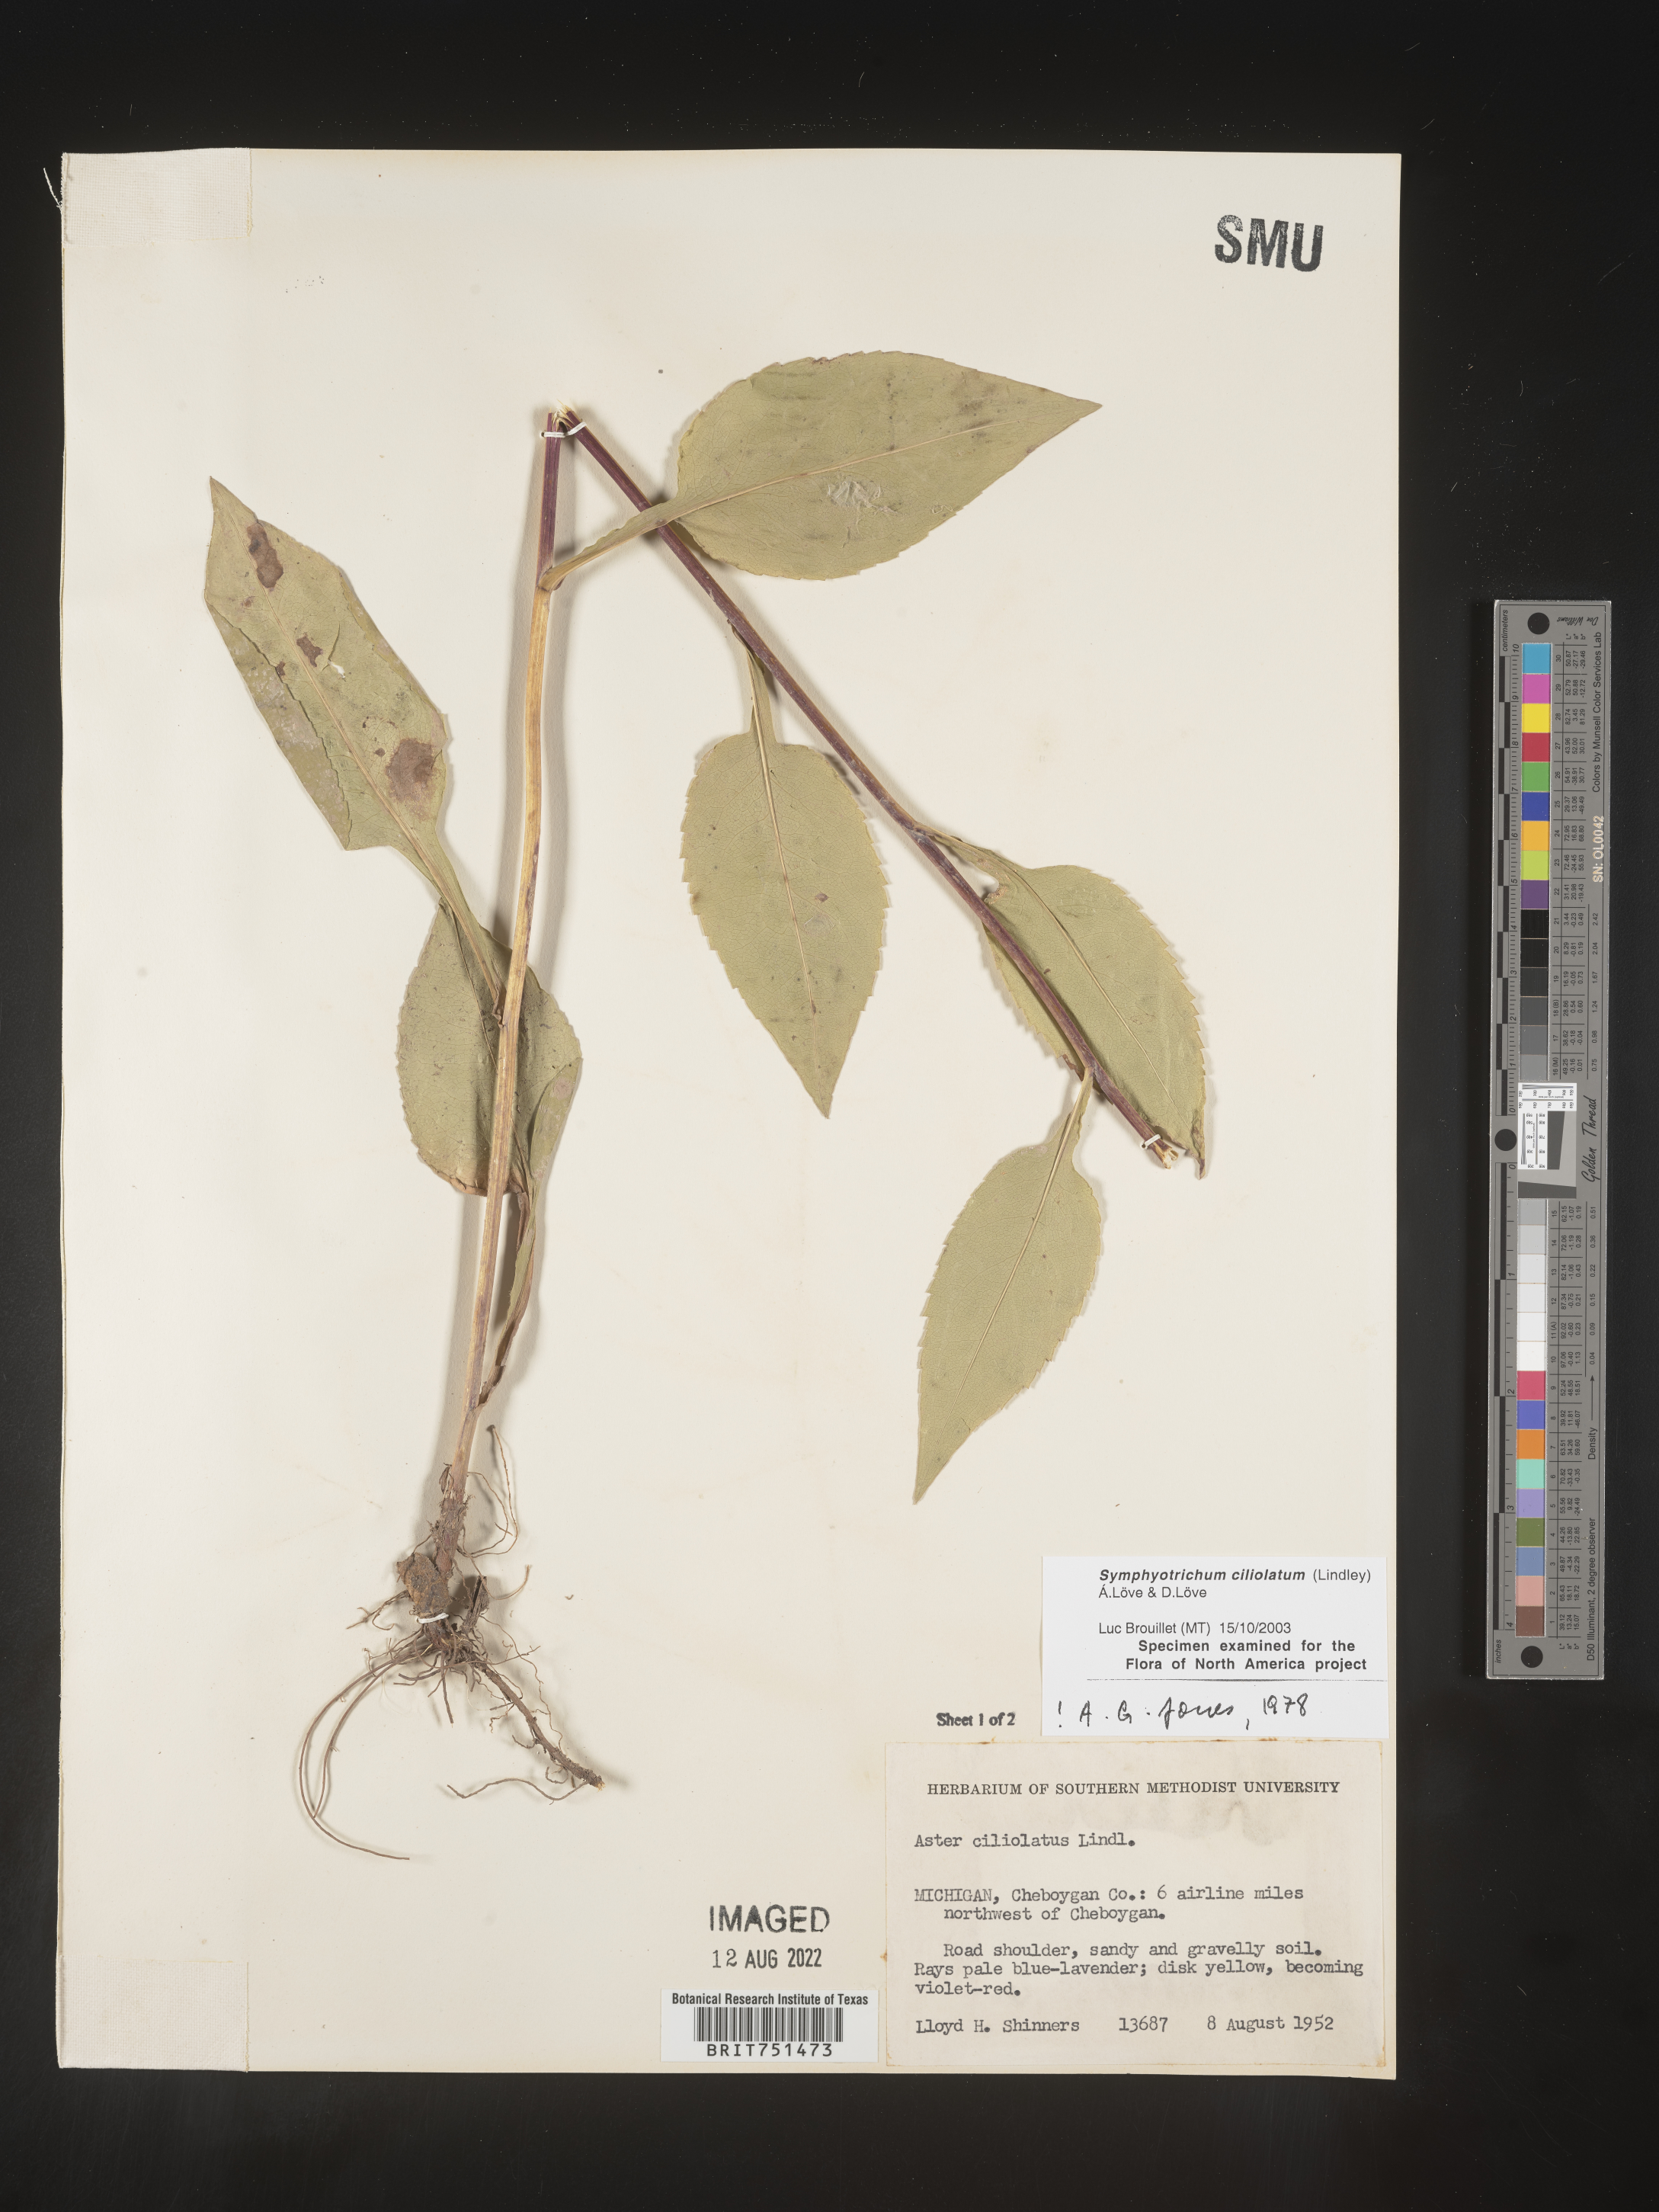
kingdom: Plantae
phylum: Tracheophyta
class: Magnoliopsida
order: Asterales
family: Asteraceae
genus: Symphyotrichum
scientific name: Symphyotrichum ciliolatum
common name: Fringed blue aster
